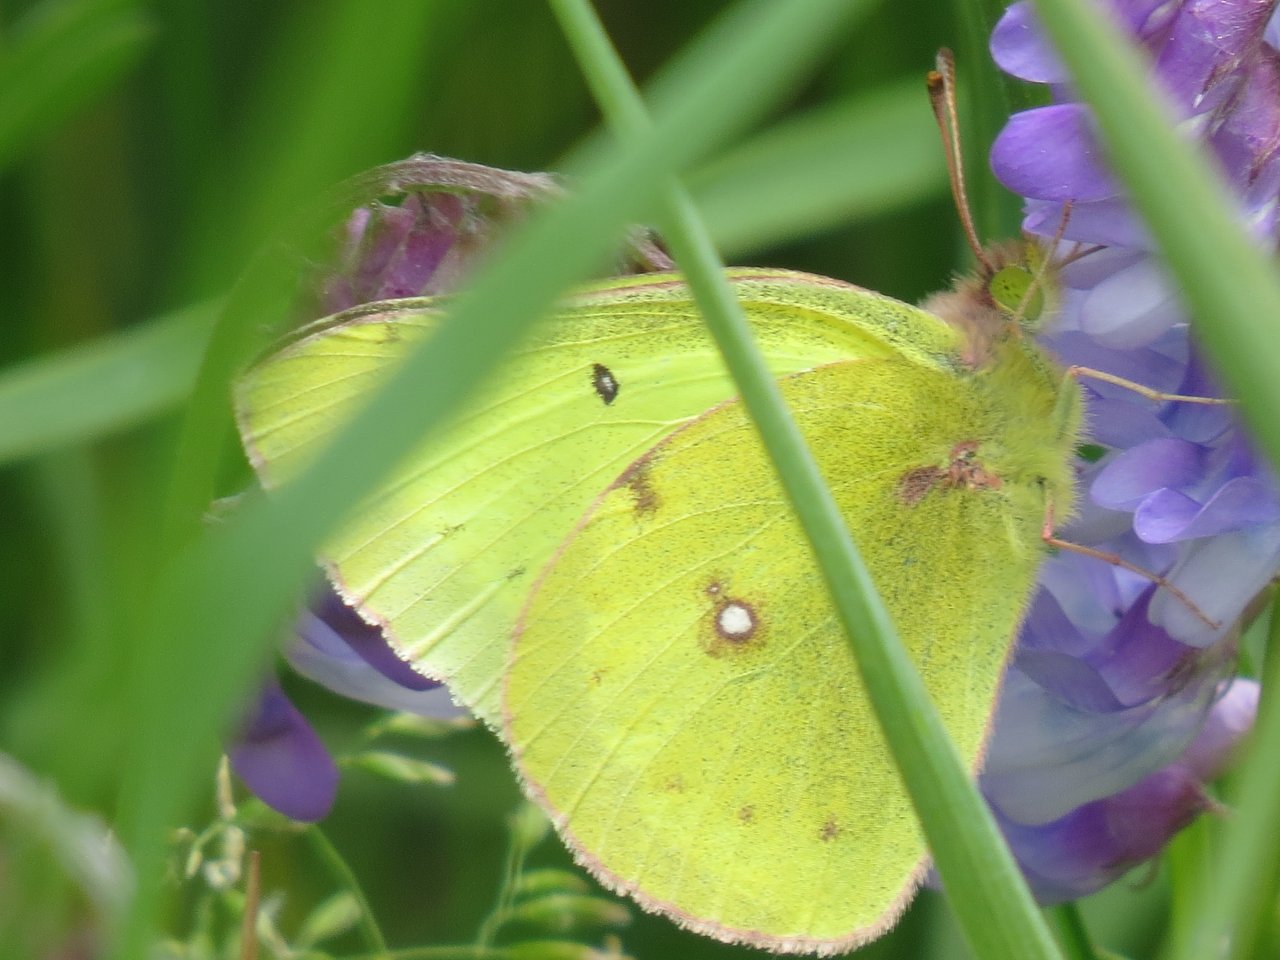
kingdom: Animalia
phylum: Arthropoda
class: Insecta
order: Lepidoptera
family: Pieridae
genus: Colias
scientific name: Colias philodice
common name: Clouded Sulphur
